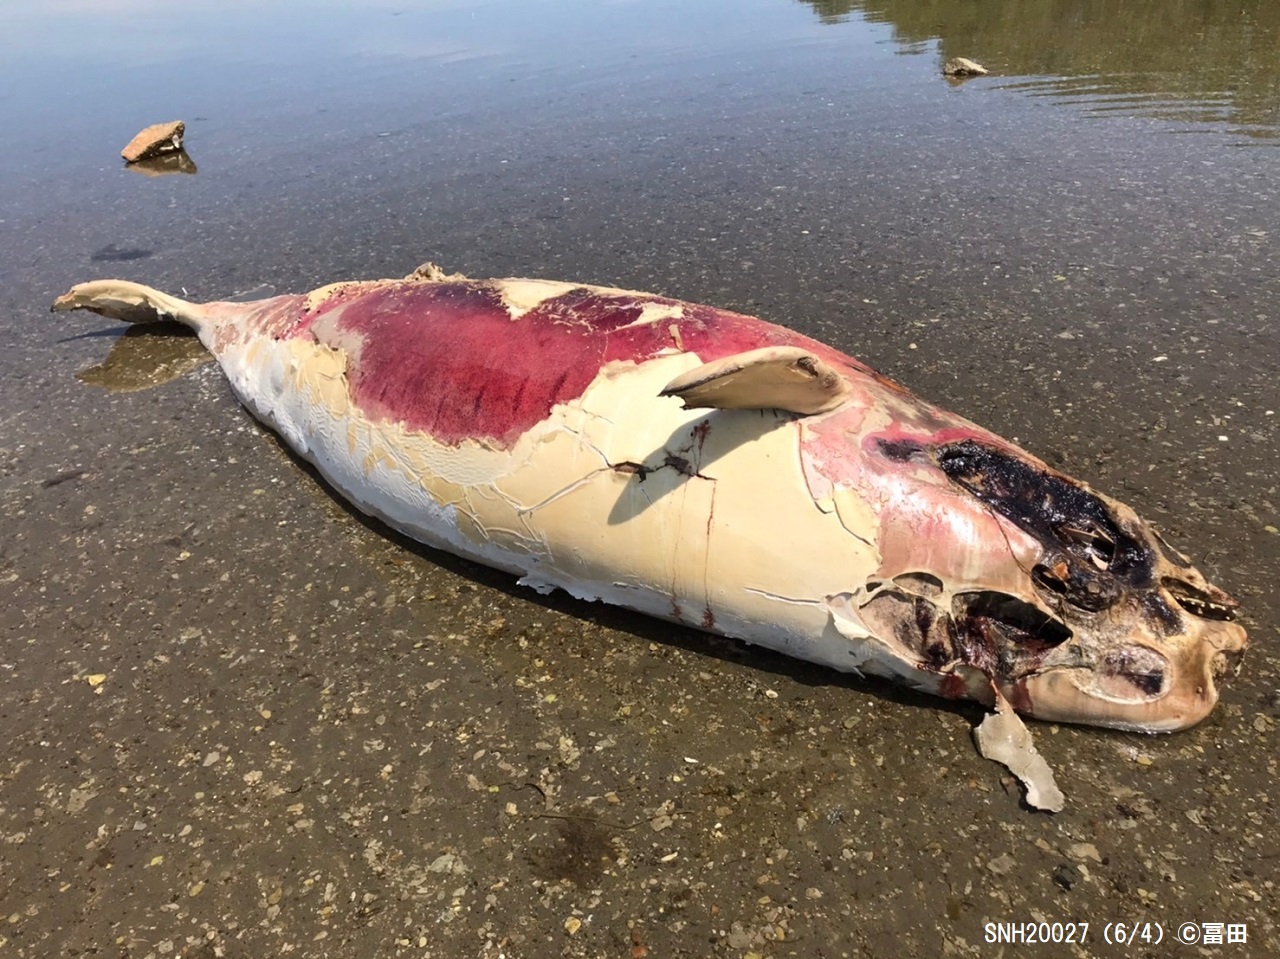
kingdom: Animalia
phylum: Chordata
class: Mammalia
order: Cetacea
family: Monodontidae
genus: Delphinapterus
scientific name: Delphinapterus leucas
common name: Beluga
